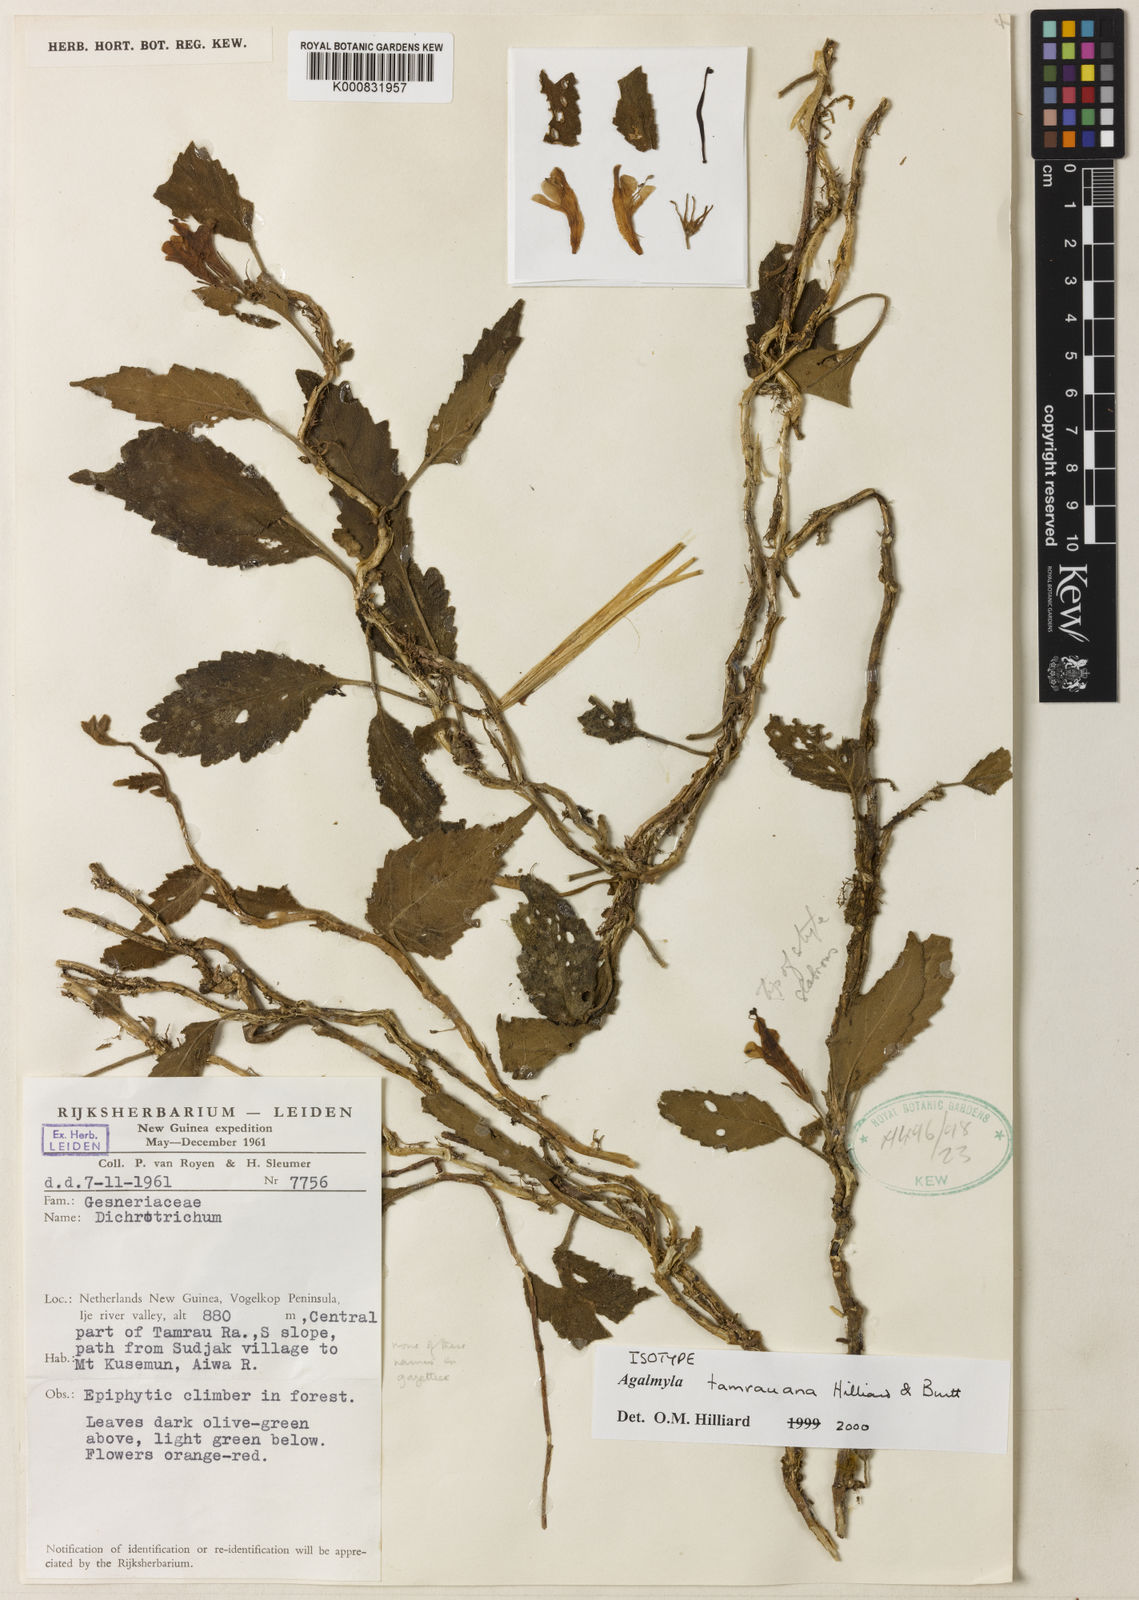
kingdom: Plantae
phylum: Tracheophyta
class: Magnoliopsida
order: Lamiales
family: Gesneriaceae
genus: Agalmyla
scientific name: Agalmyla tamrauana
